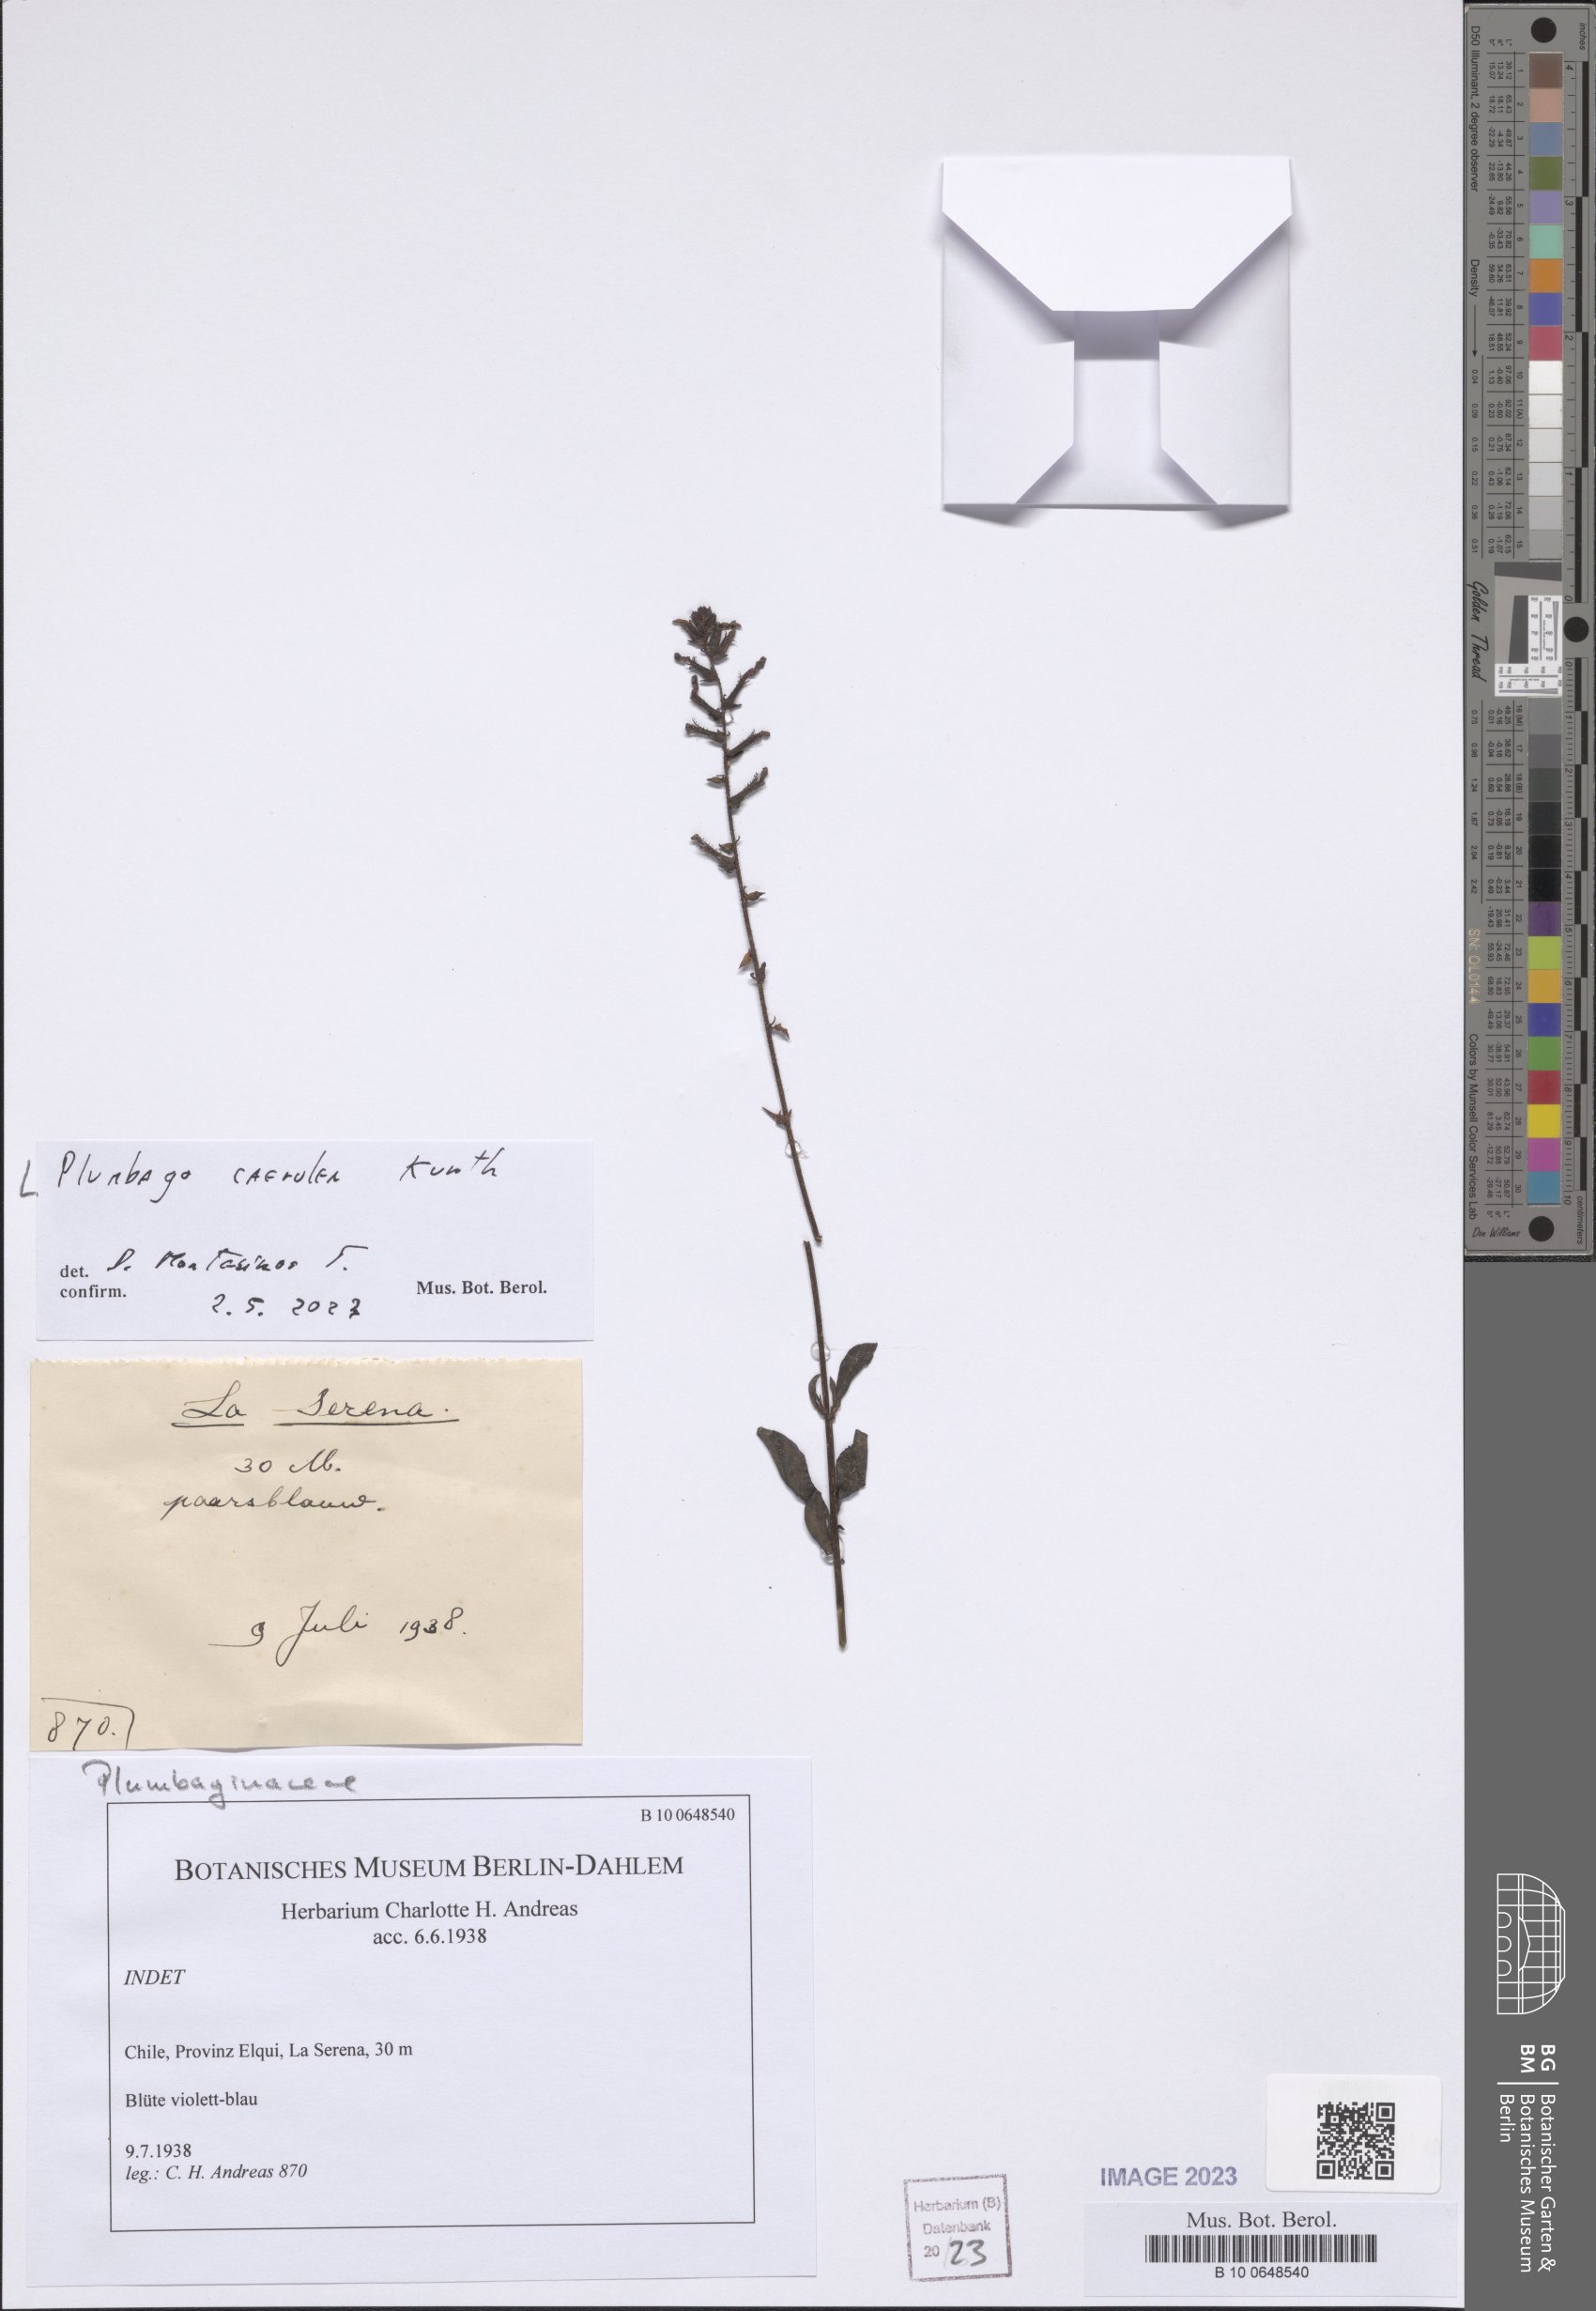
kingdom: Plantae
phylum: Tracheophyta
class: Magnoliopsida
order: Caryophyllales
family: Plumbaginaceae
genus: Plumbago
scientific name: Plumbago caerulea
